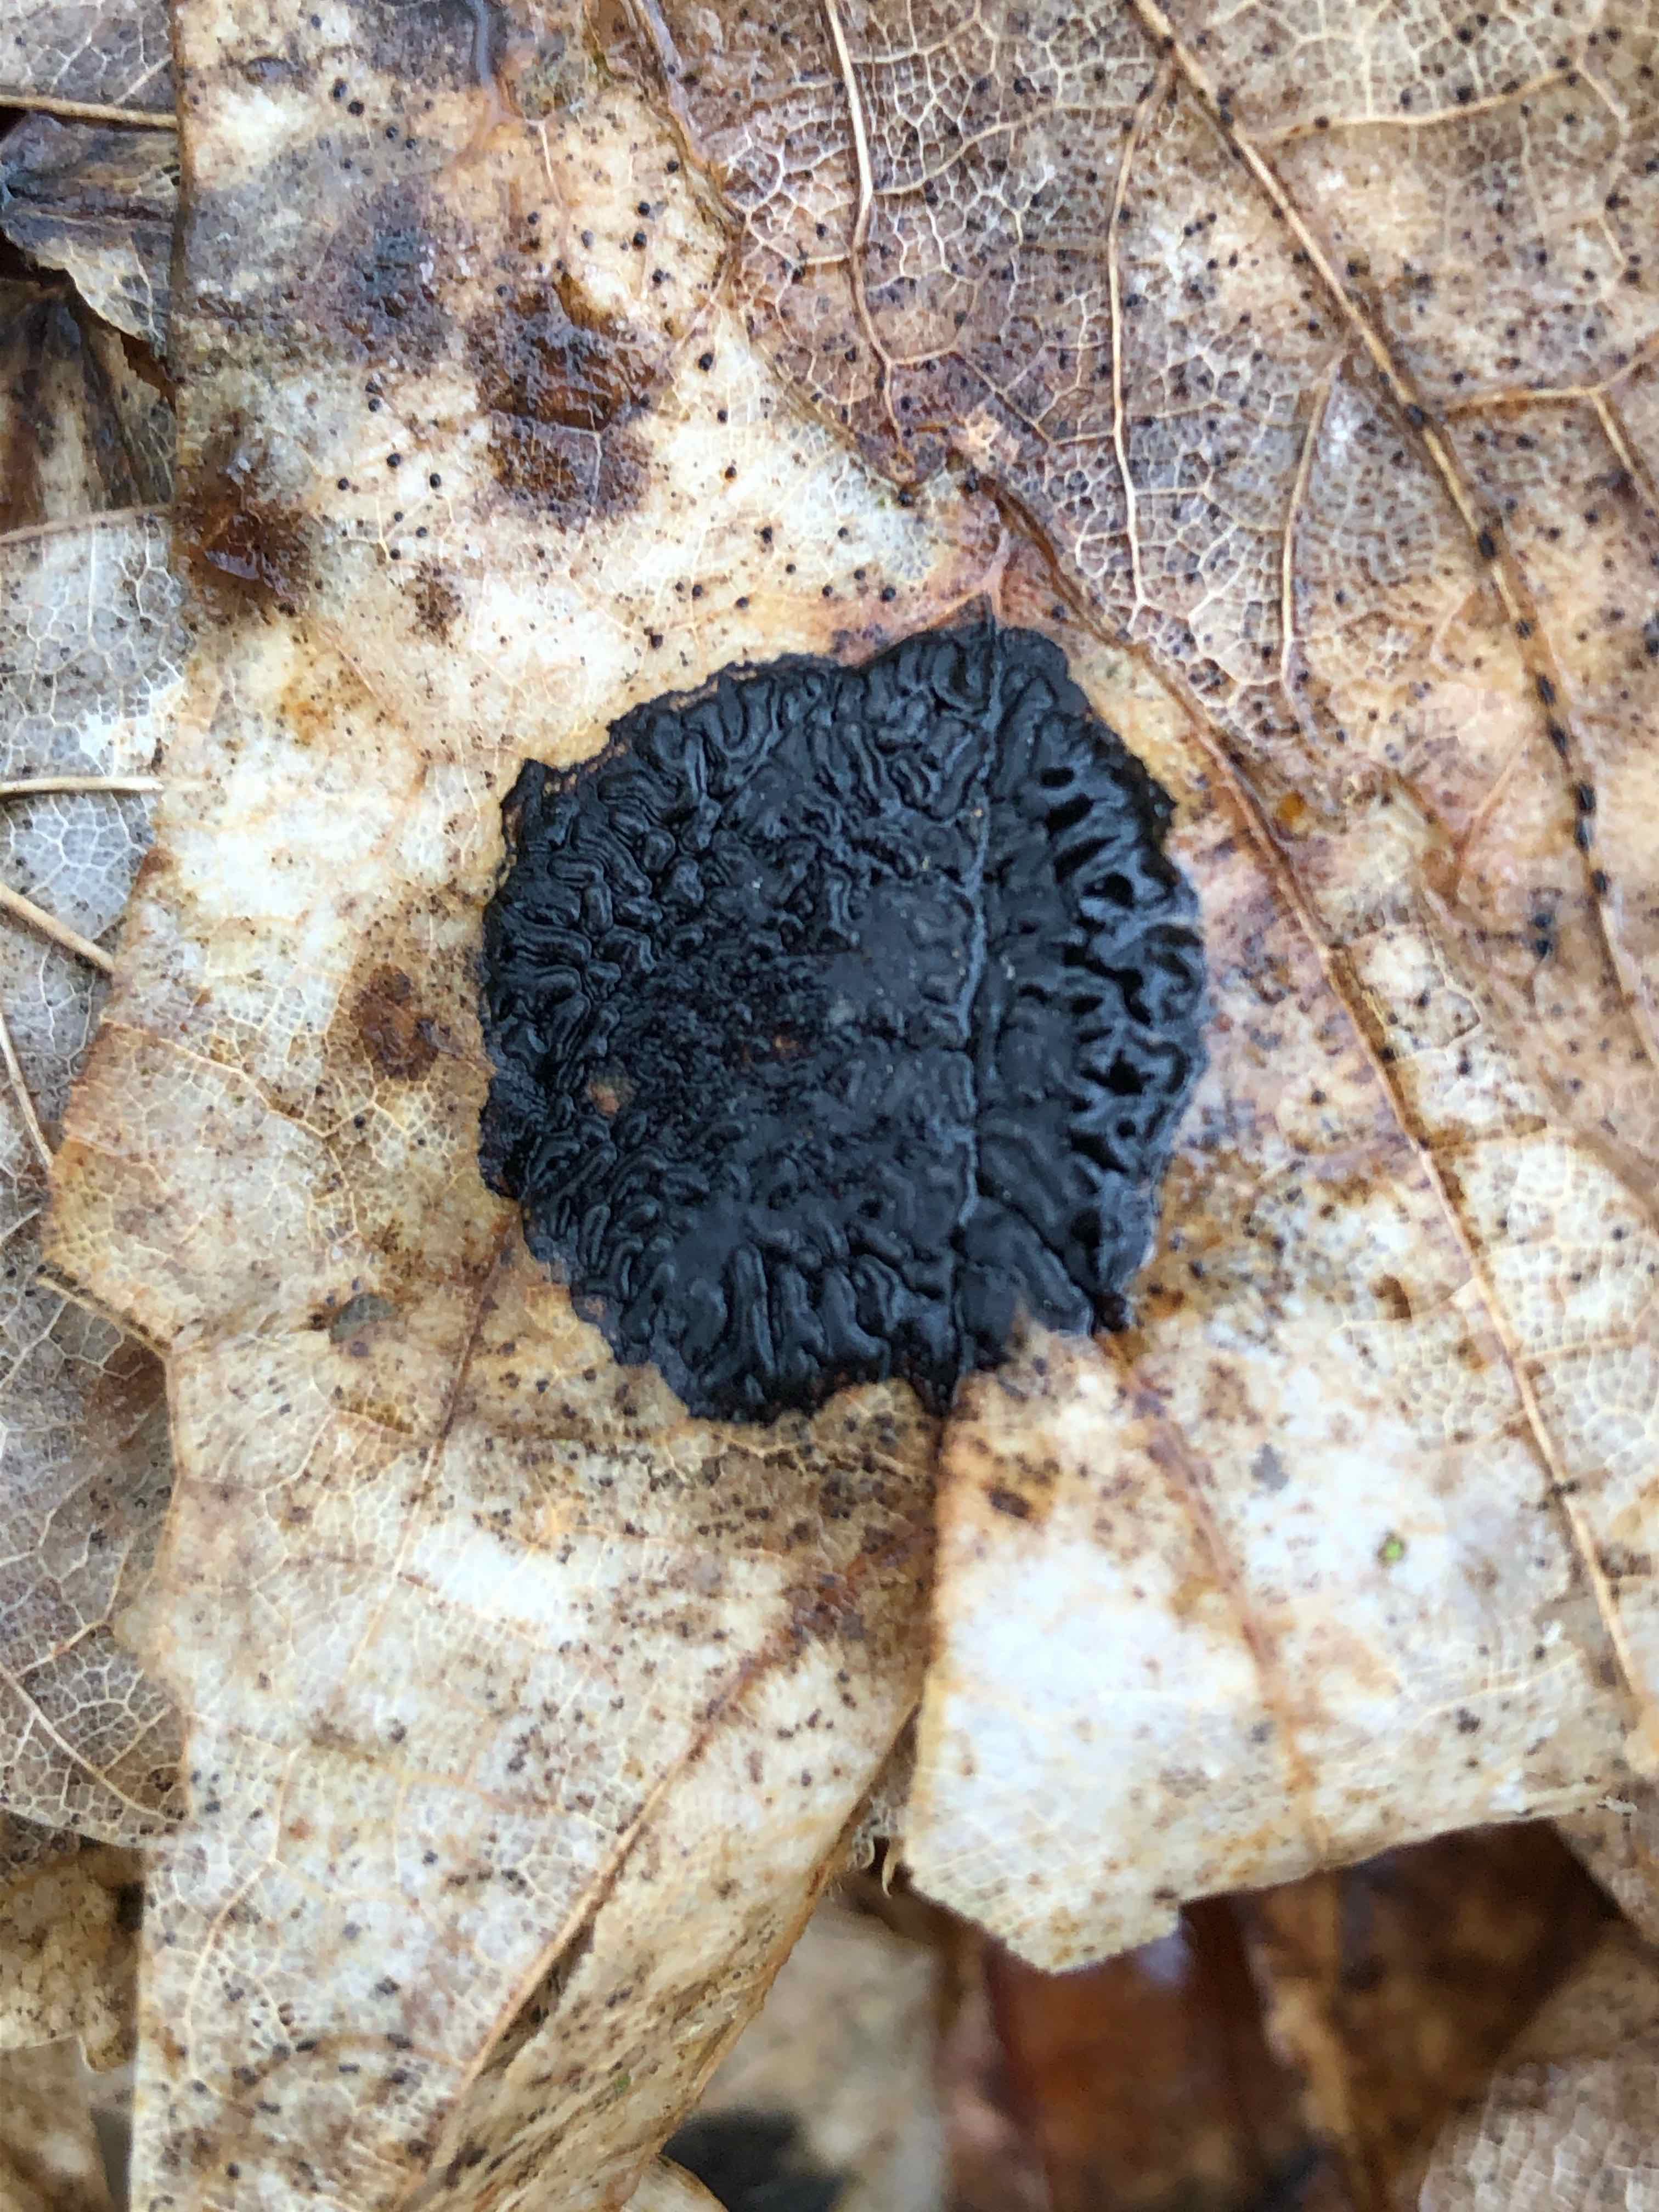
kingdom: Fungi
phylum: Ascomycota
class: Leotiomycetes
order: Rhytismatales
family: Rhytismataceae
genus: Rhytisma
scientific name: Rhytisma acerinum
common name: ahorn-rynkeplet
